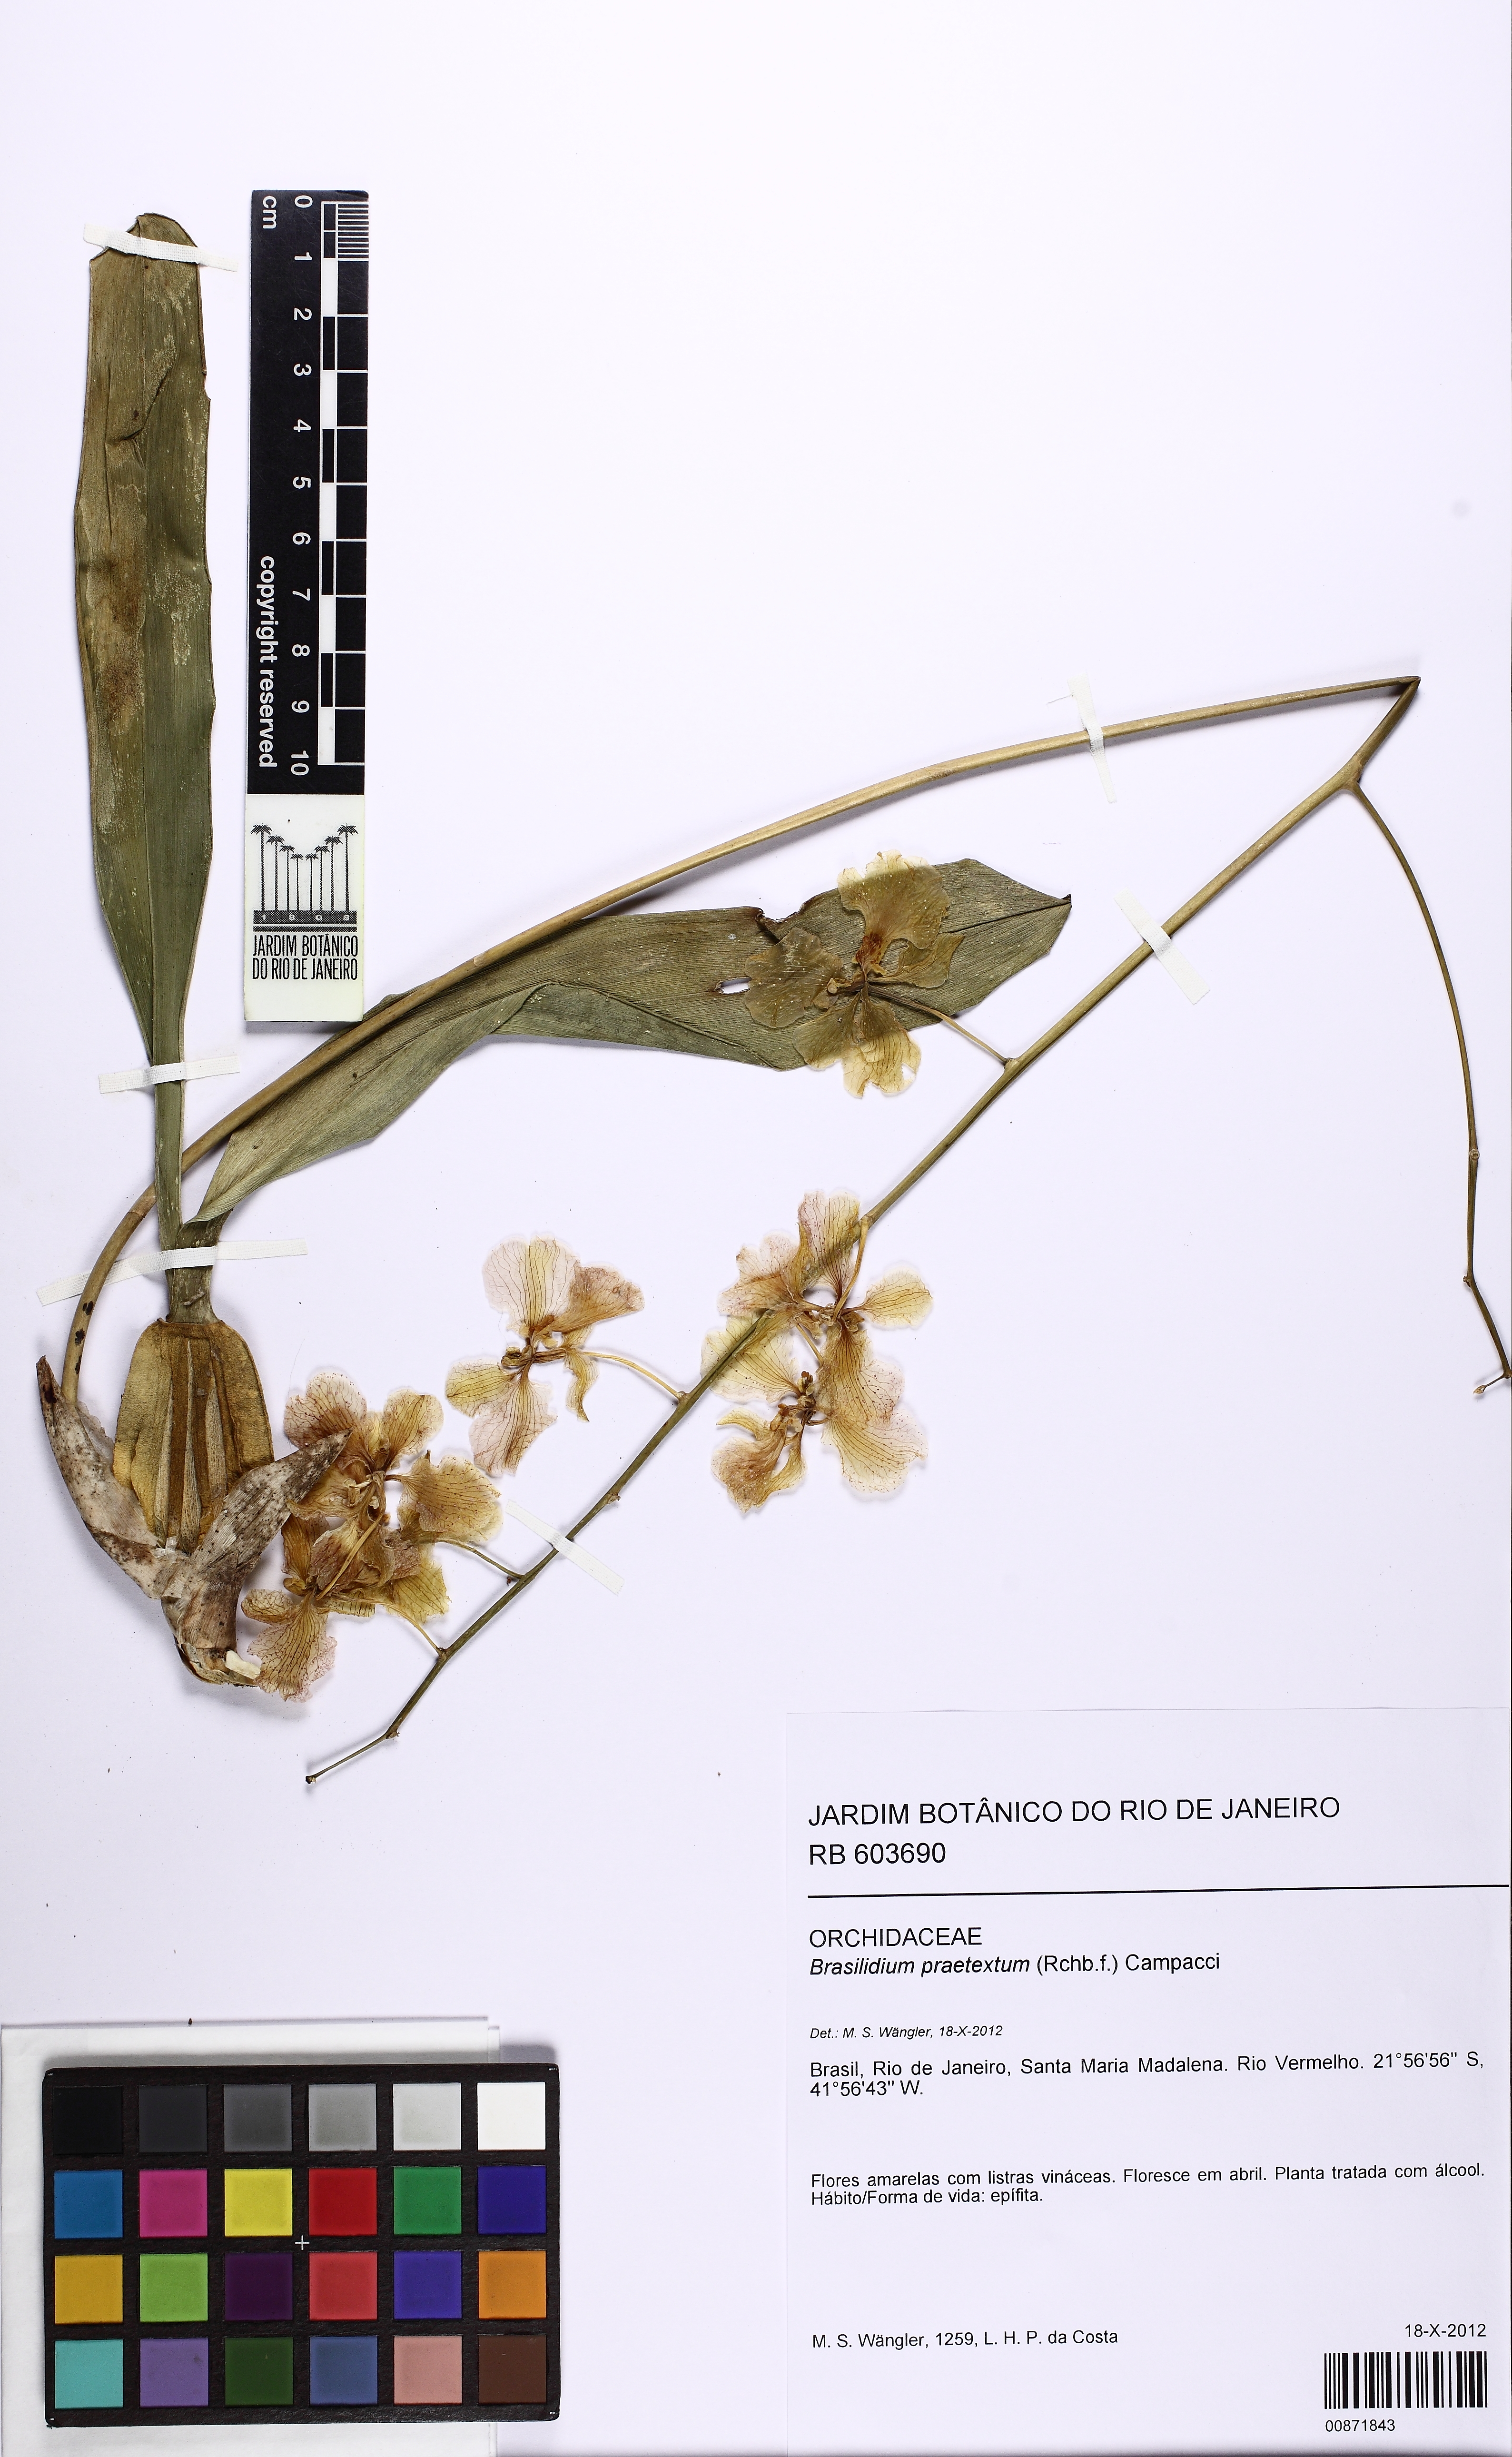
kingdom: Plantae
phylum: Tracheophyta
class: Liliopsida
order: Asparagales
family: Orchidaceae
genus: Gomesa
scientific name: Gomesa praetexta
